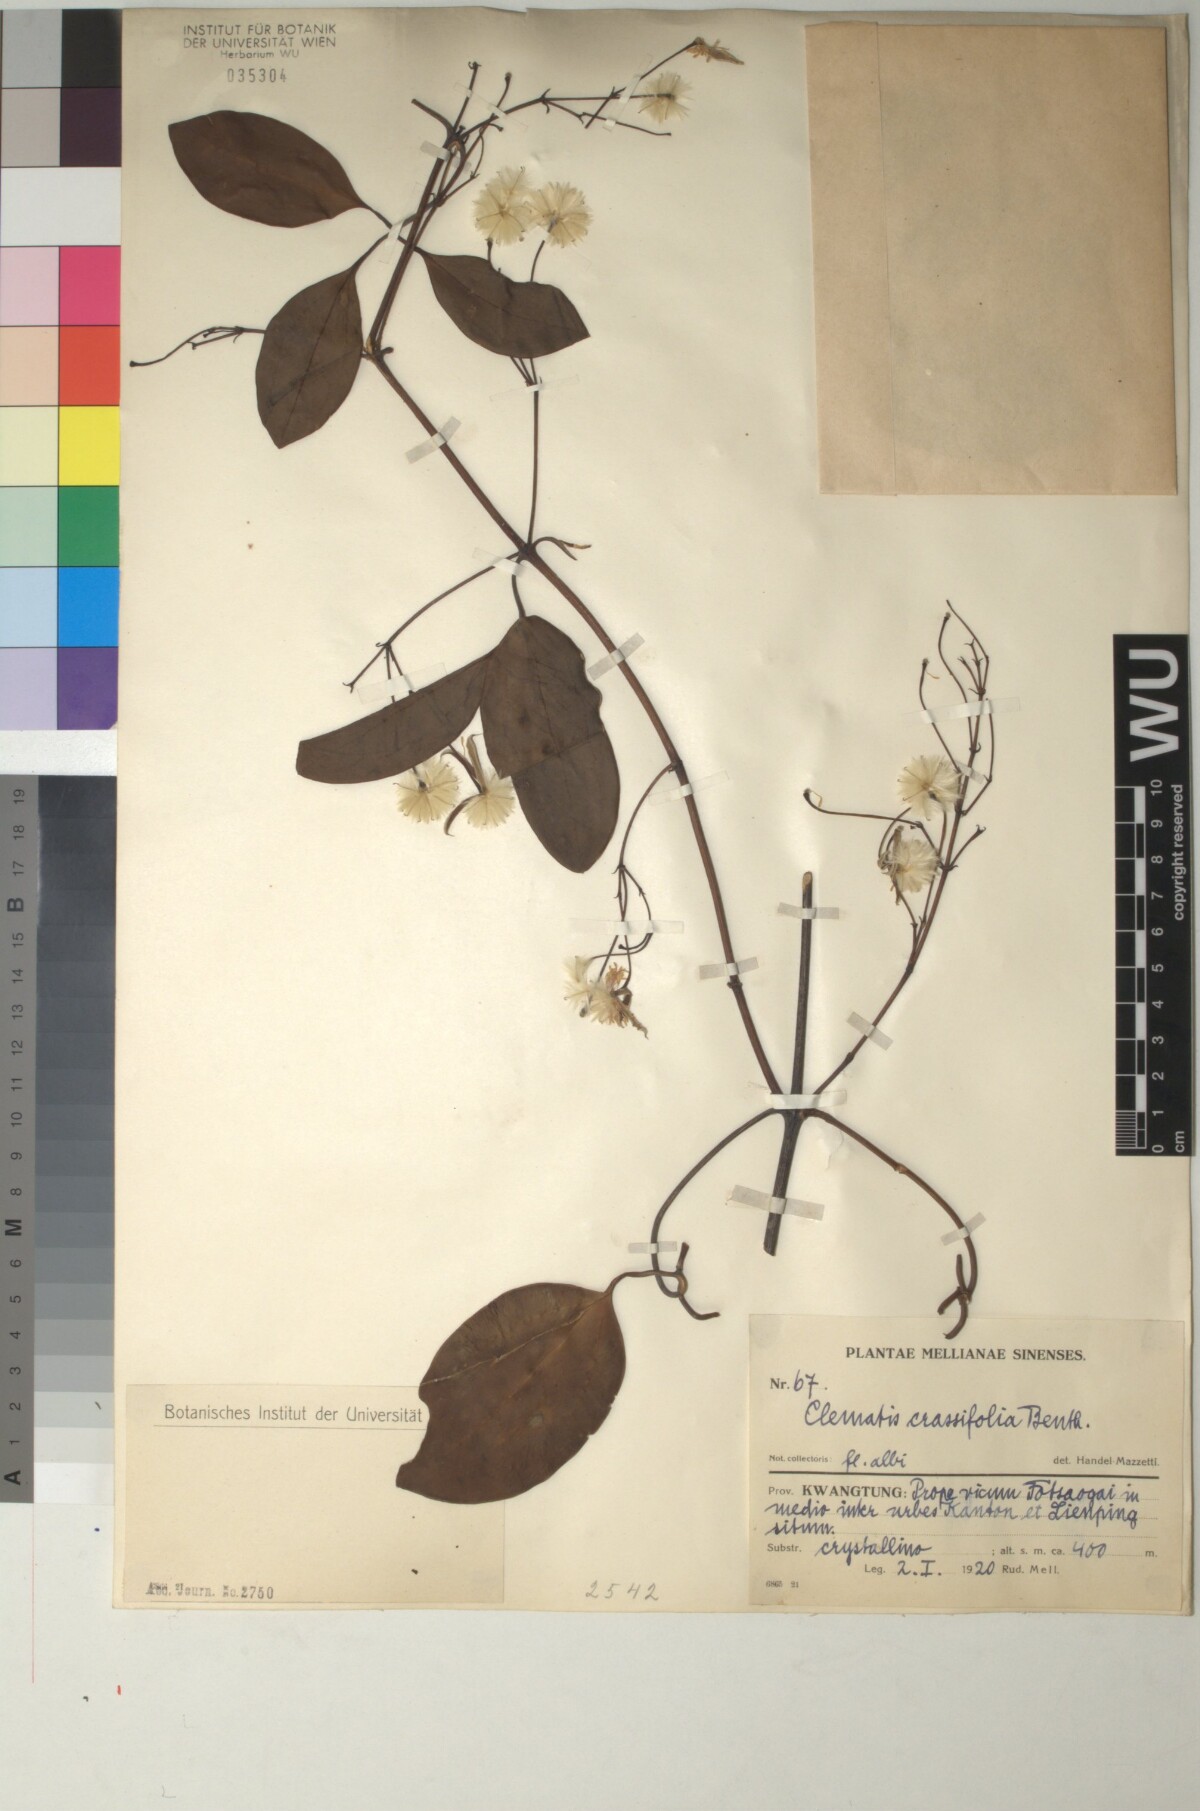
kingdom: Plantae
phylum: Tracheophyta
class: Magnoliopsida
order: Ranunculales
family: Ranunculaceae
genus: Clematis
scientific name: Clematis crassifolia
